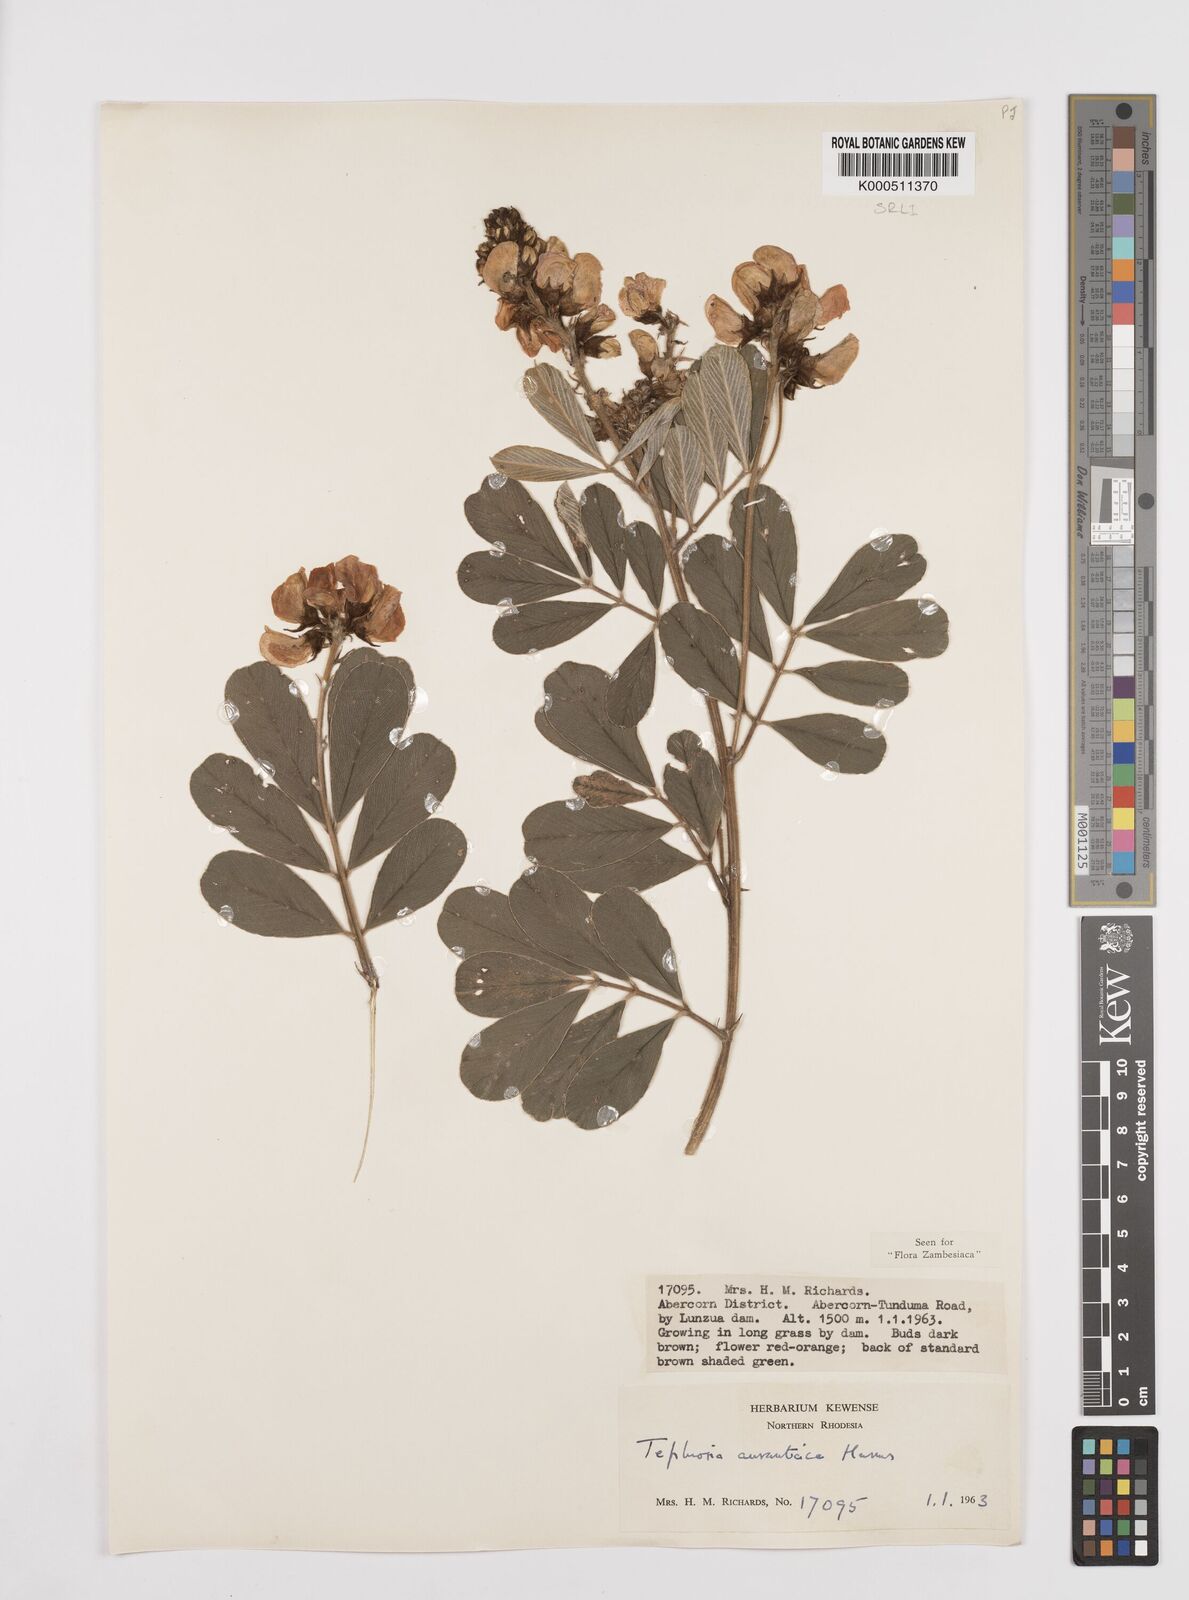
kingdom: Plantae
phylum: Tracheophyta
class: Magnoliopsida
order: Fabales
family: Fabaceae
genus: Tephrosia
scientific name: Tephrosia aurantiaca
